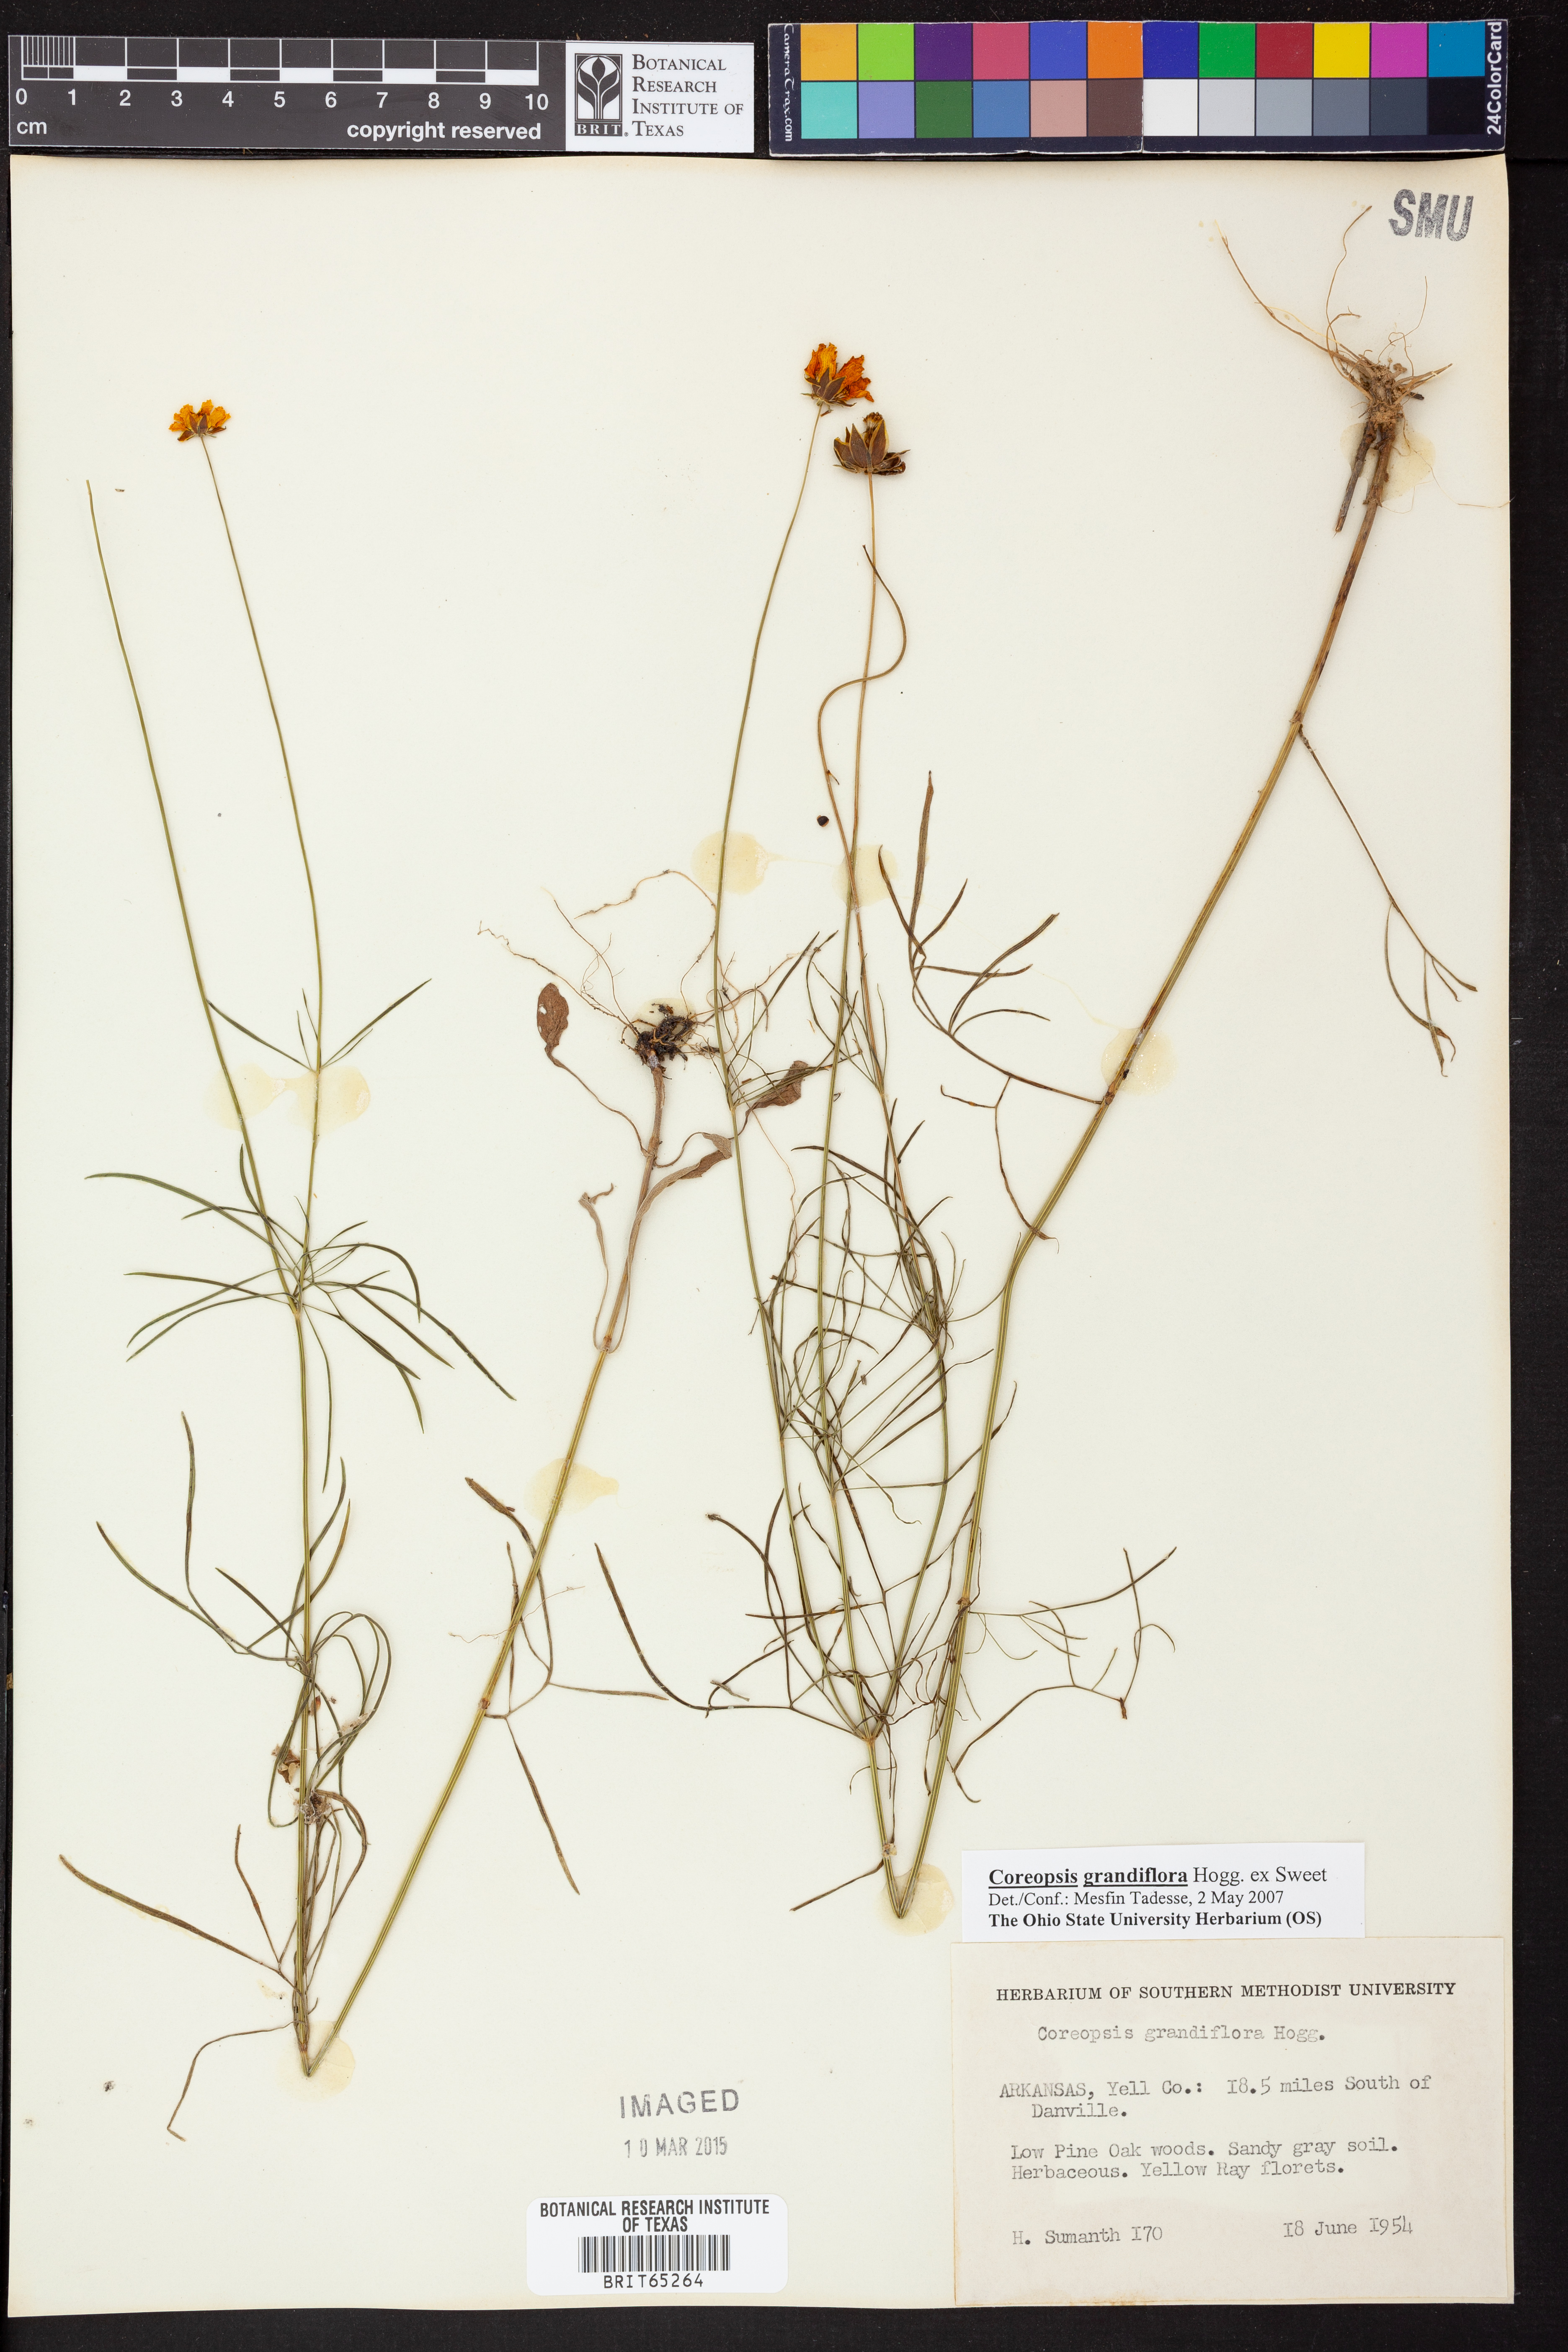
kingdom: Plantae
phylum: Tracheophyta
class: Magnoliopsida
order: Asterales
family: Asteraceae
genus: Coreopsis
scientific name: Coreopsis grandiflora
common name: Large-flowered tickseed
